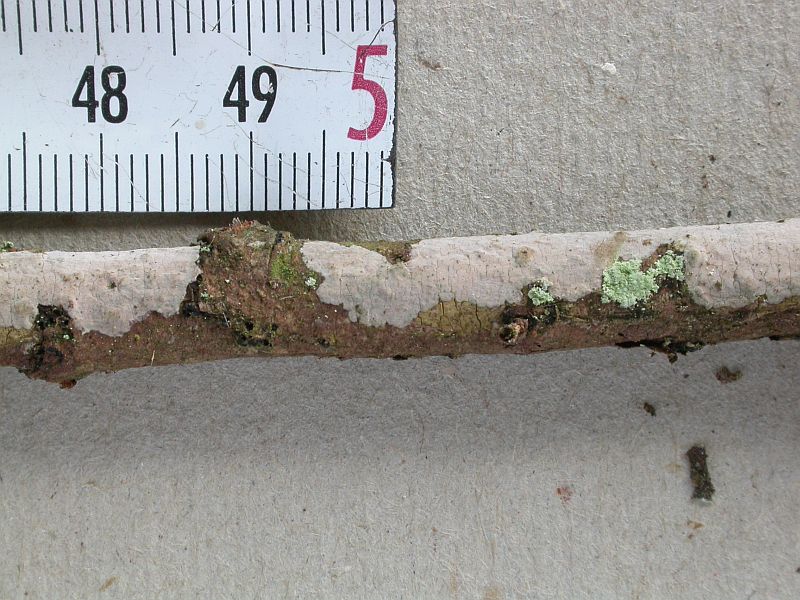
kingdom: Fungi
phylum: Basidiomycota
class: Agaricomycetes
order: Russulales
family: Echinodontiaceae
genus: Amylostereum
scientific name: Amylostereum laevigatum
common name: ene-lædersvamp
